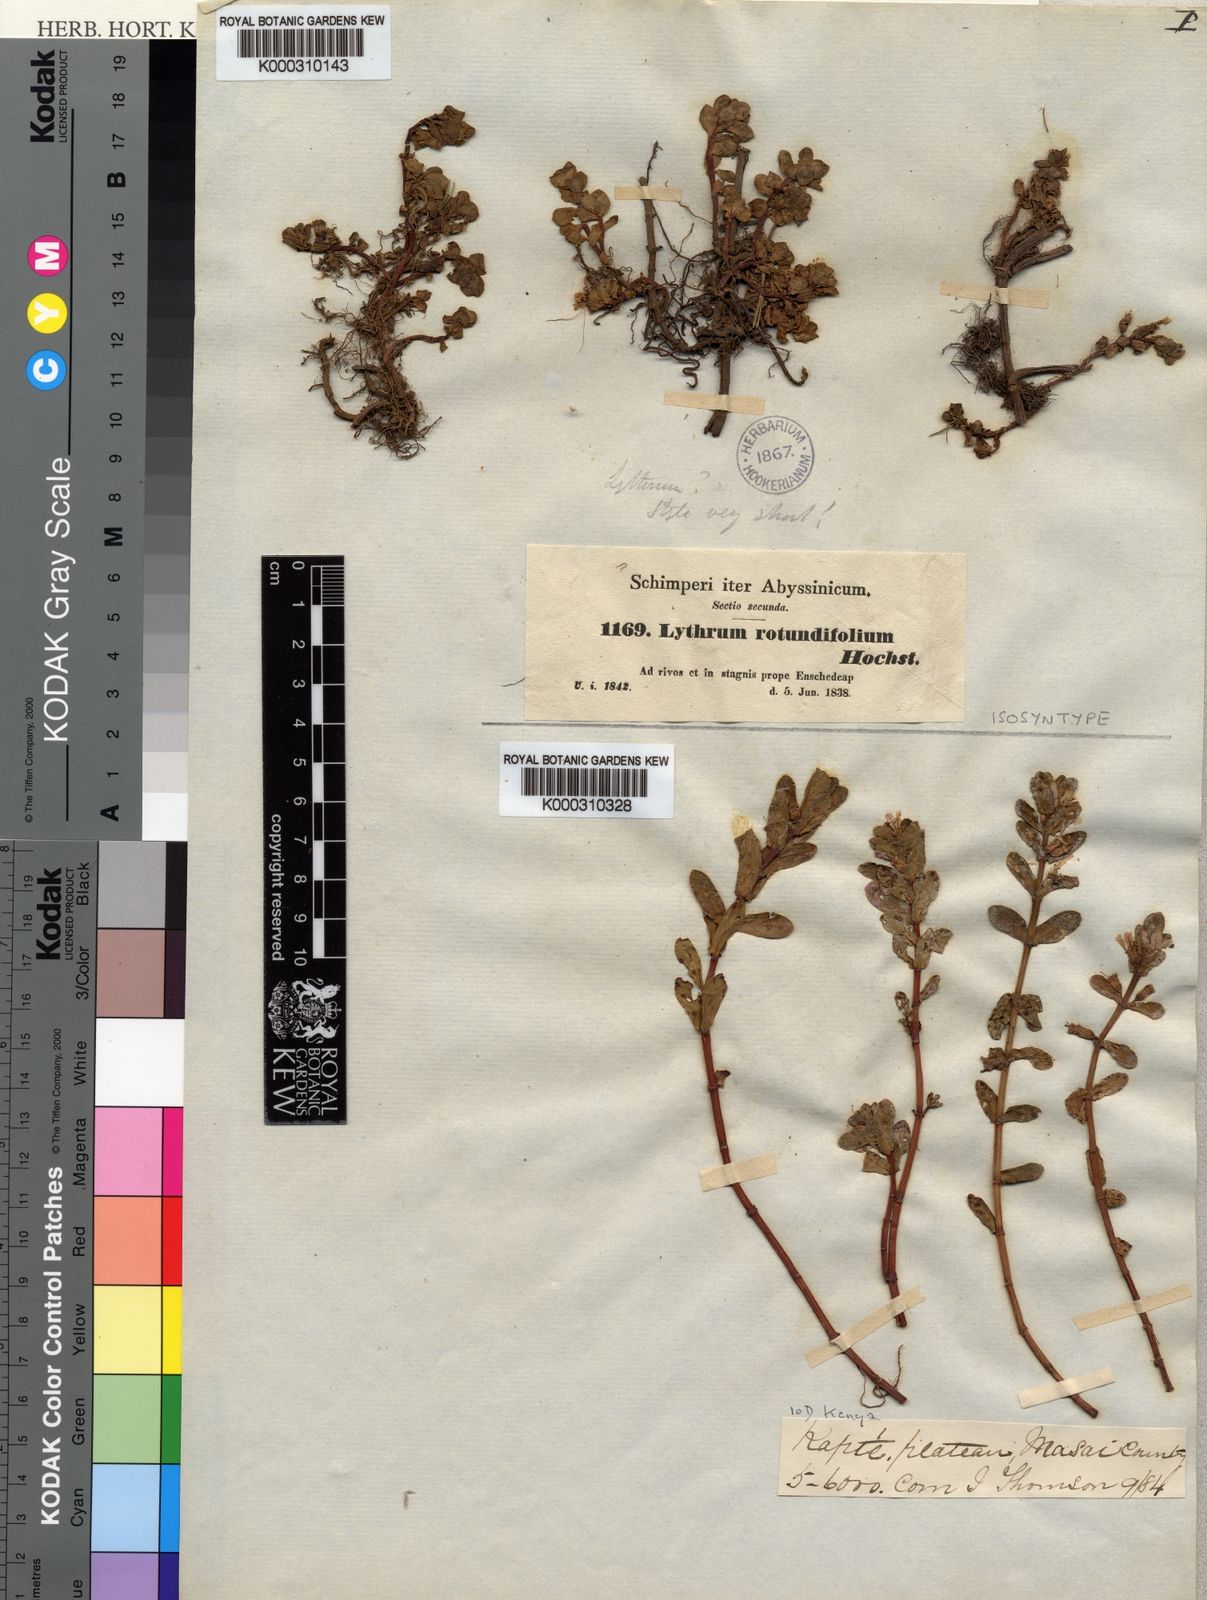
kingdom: Plantae
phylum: Tracheophyta
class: Magnoliopsida
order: Myrtales
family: Lythraceae
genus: Lythrum
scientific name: Lythrum rotundifolium
